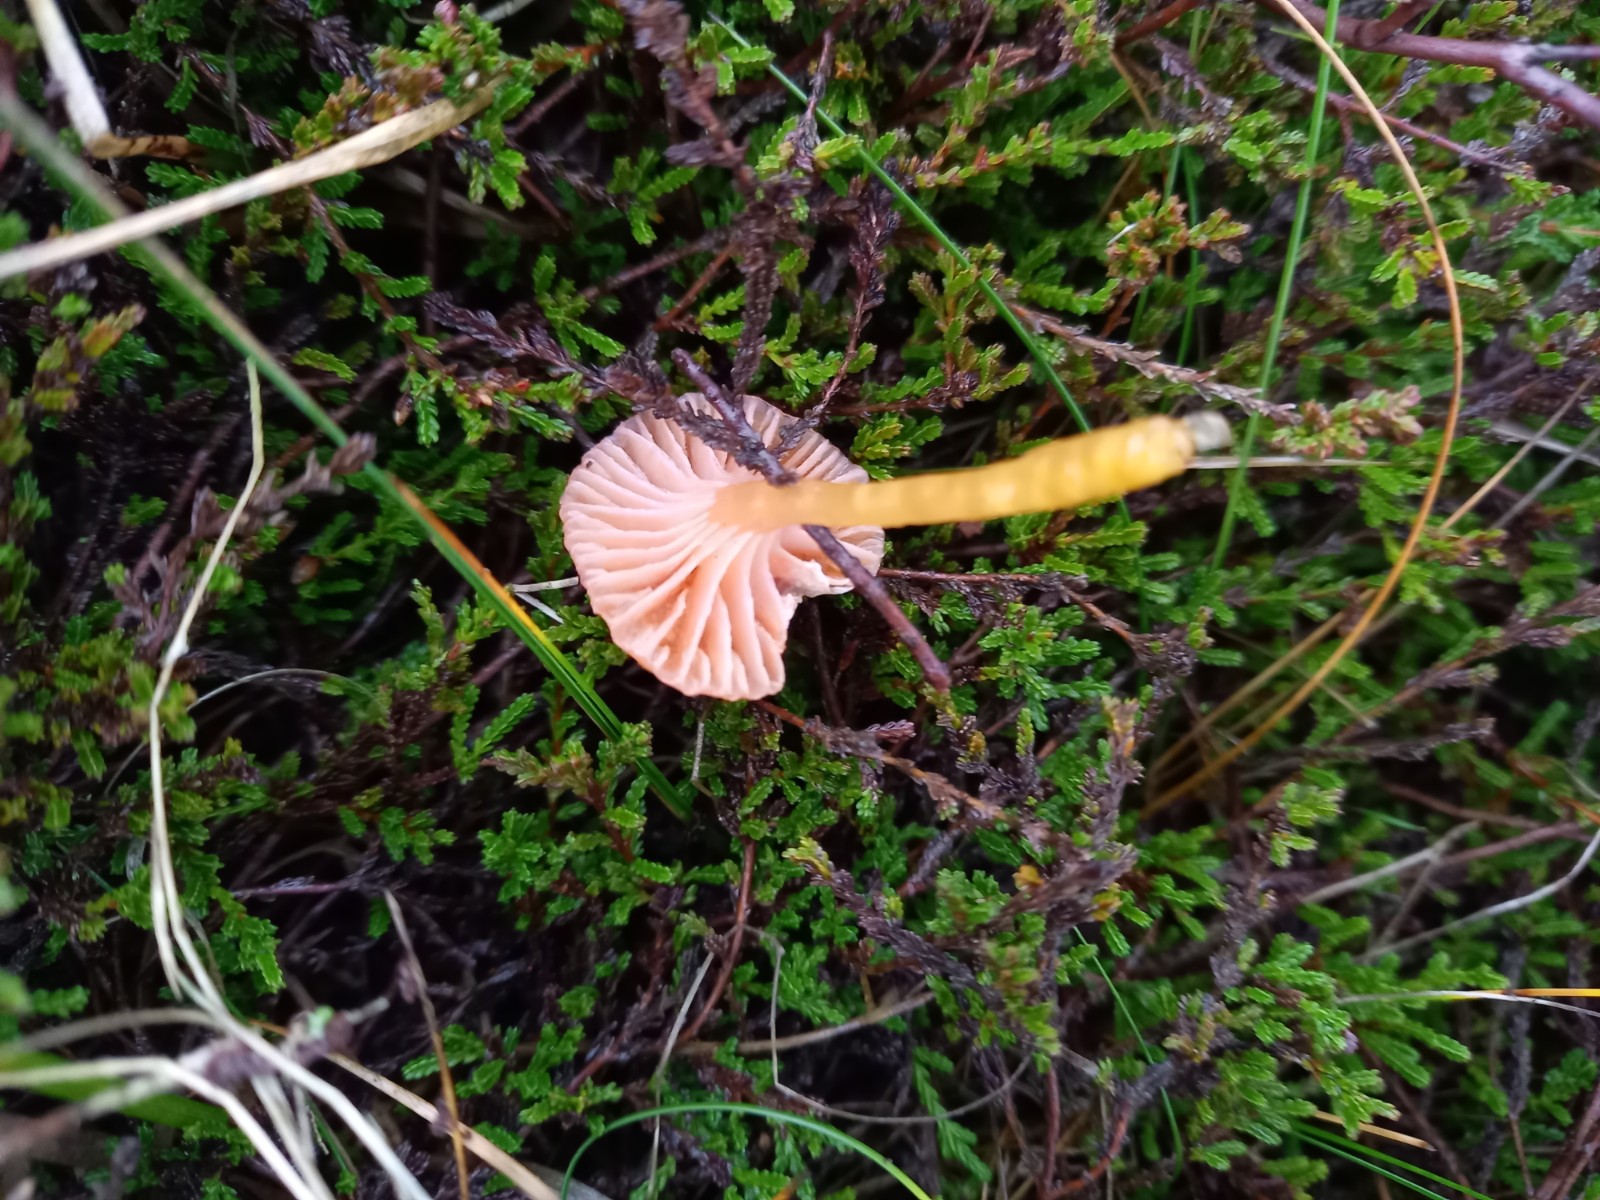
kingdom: Fungi
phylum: Basidiomycota
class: Agaricomycetes
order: Agaricales
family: Hygrophoraceae
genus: Gliophorus
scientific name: Gliophorus laetus
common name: brusk-vokshat
